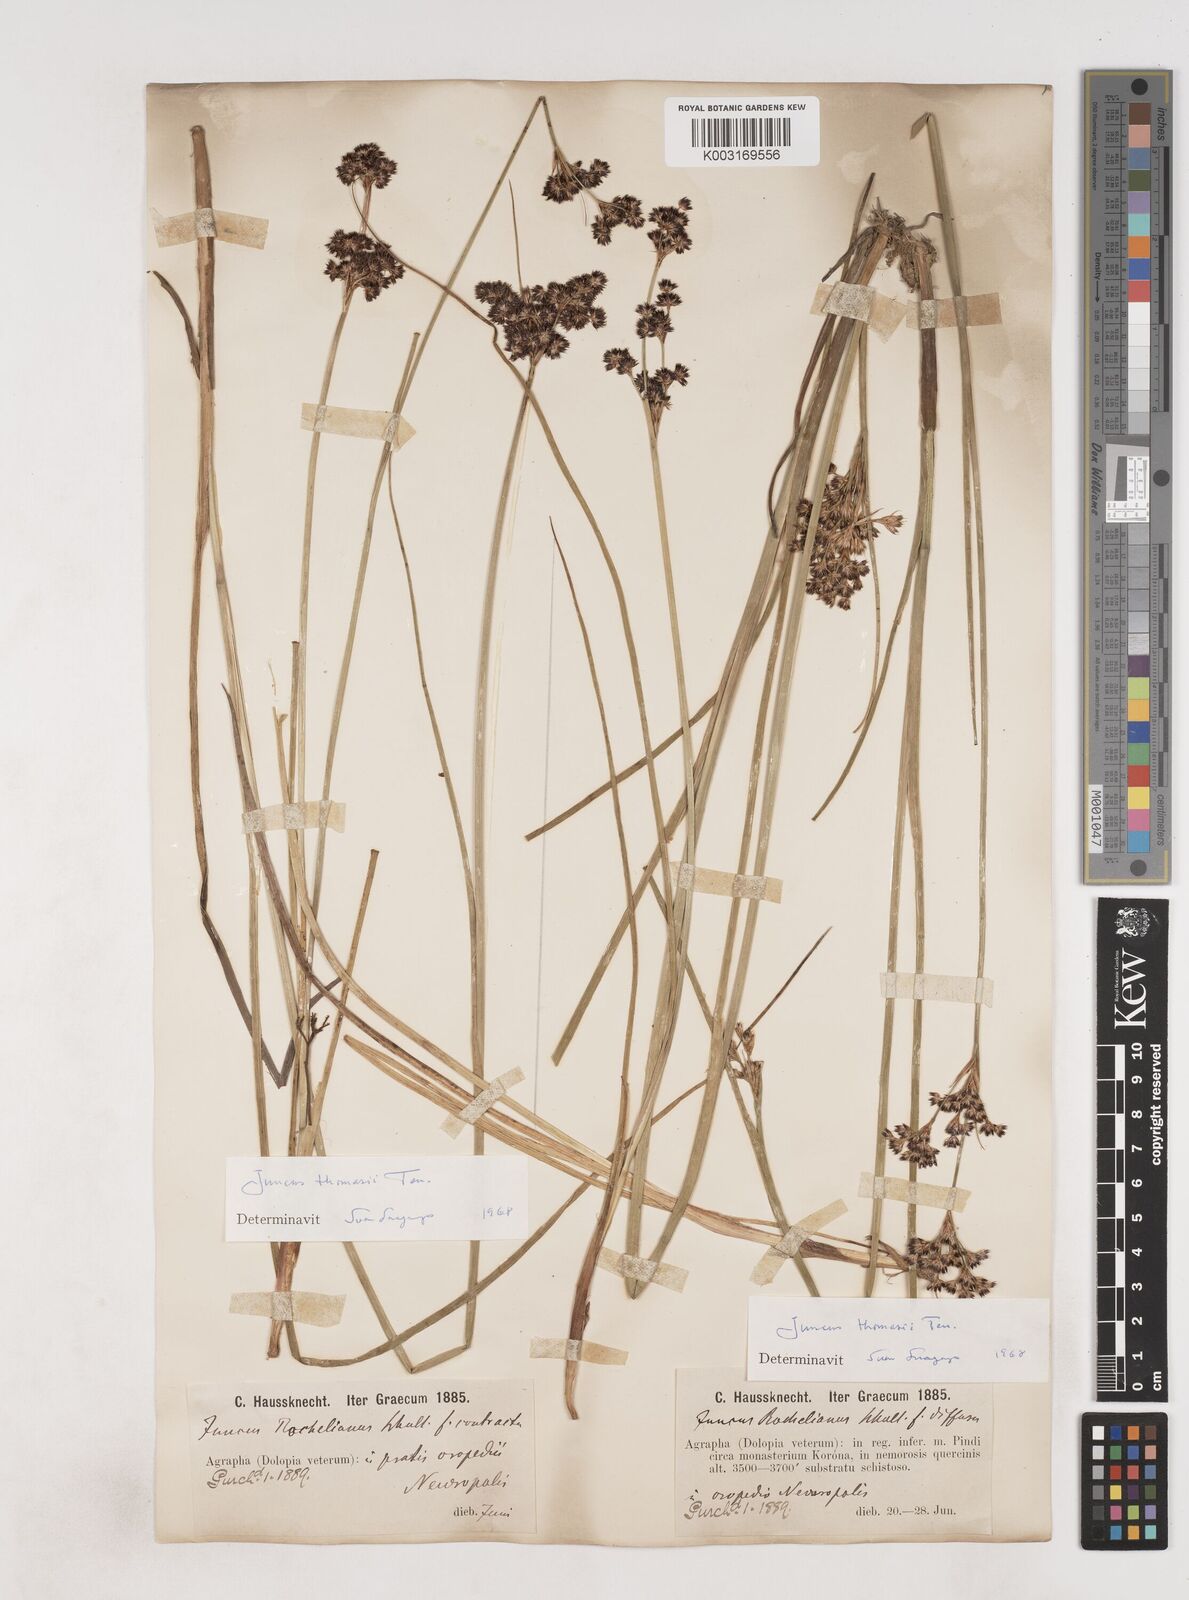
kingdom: Plantae
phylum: Tracheophyta
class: Liliopsida
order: Poales
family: Juncaceae
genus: Juncus
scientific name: Juncus thomasii
